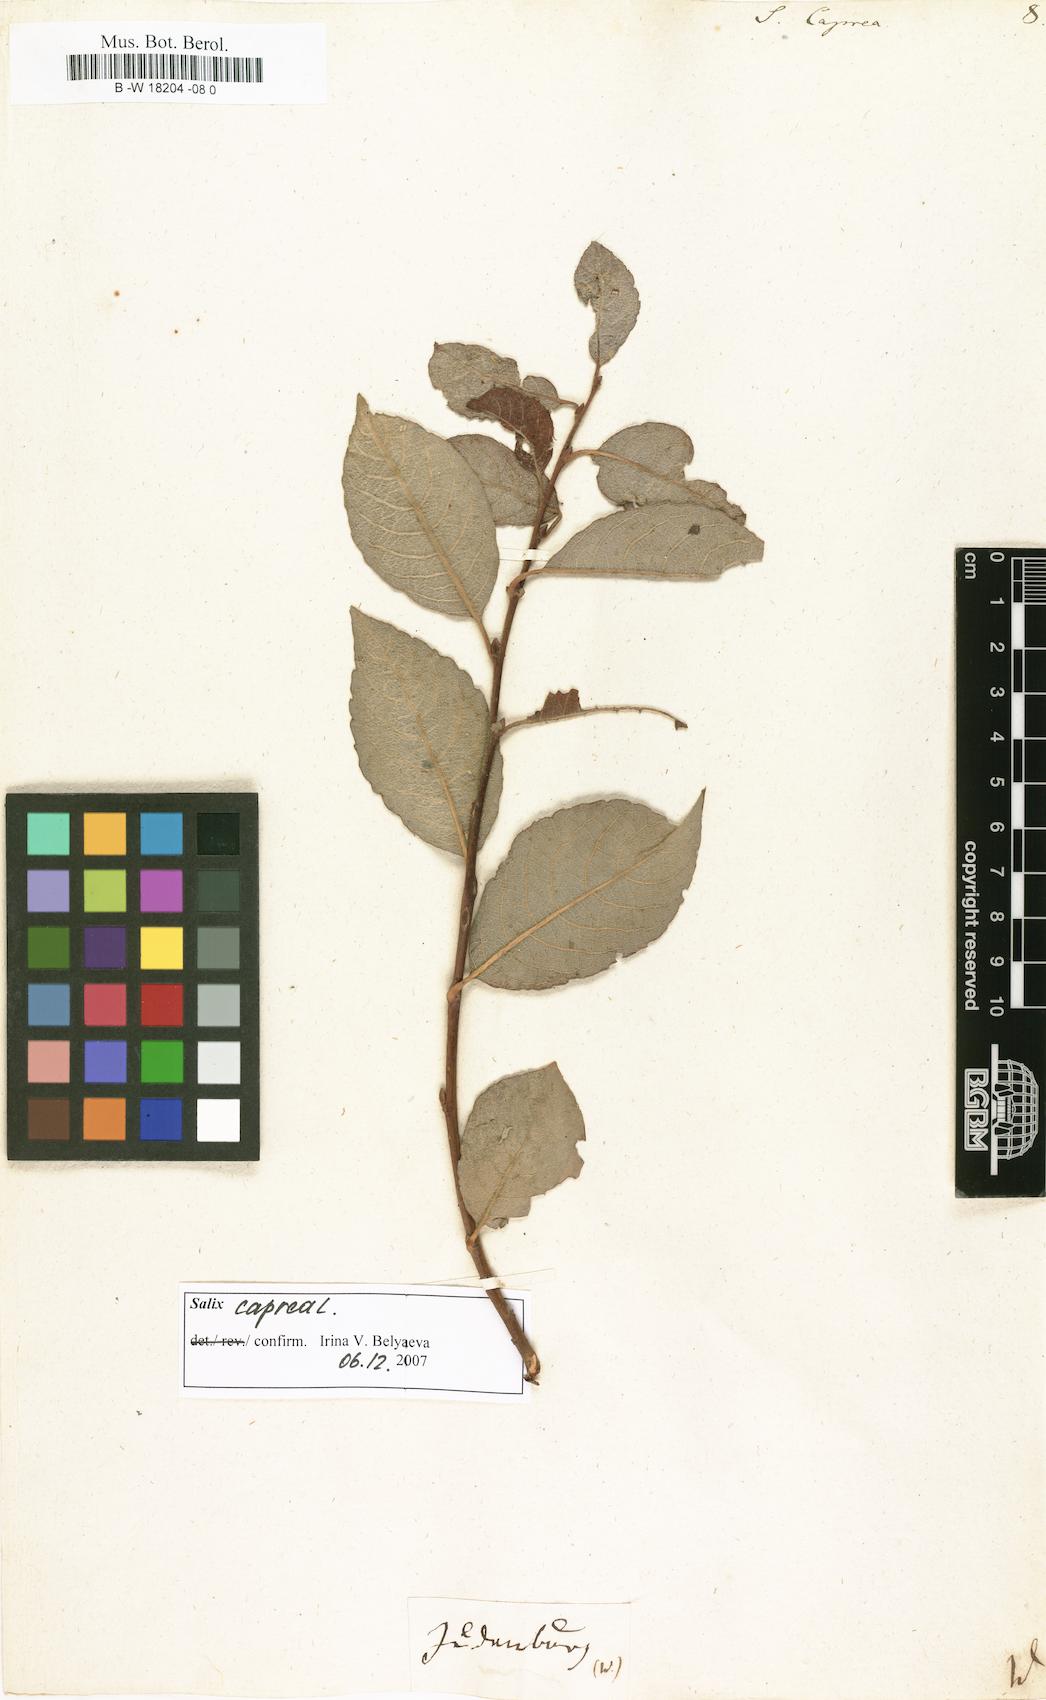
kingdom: Plantae
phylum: Tracheophyta
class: Magnoliopsida
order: Malpighiales
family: Salicaceae
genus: Salix
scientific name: Salix caprea
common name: Goat willow
